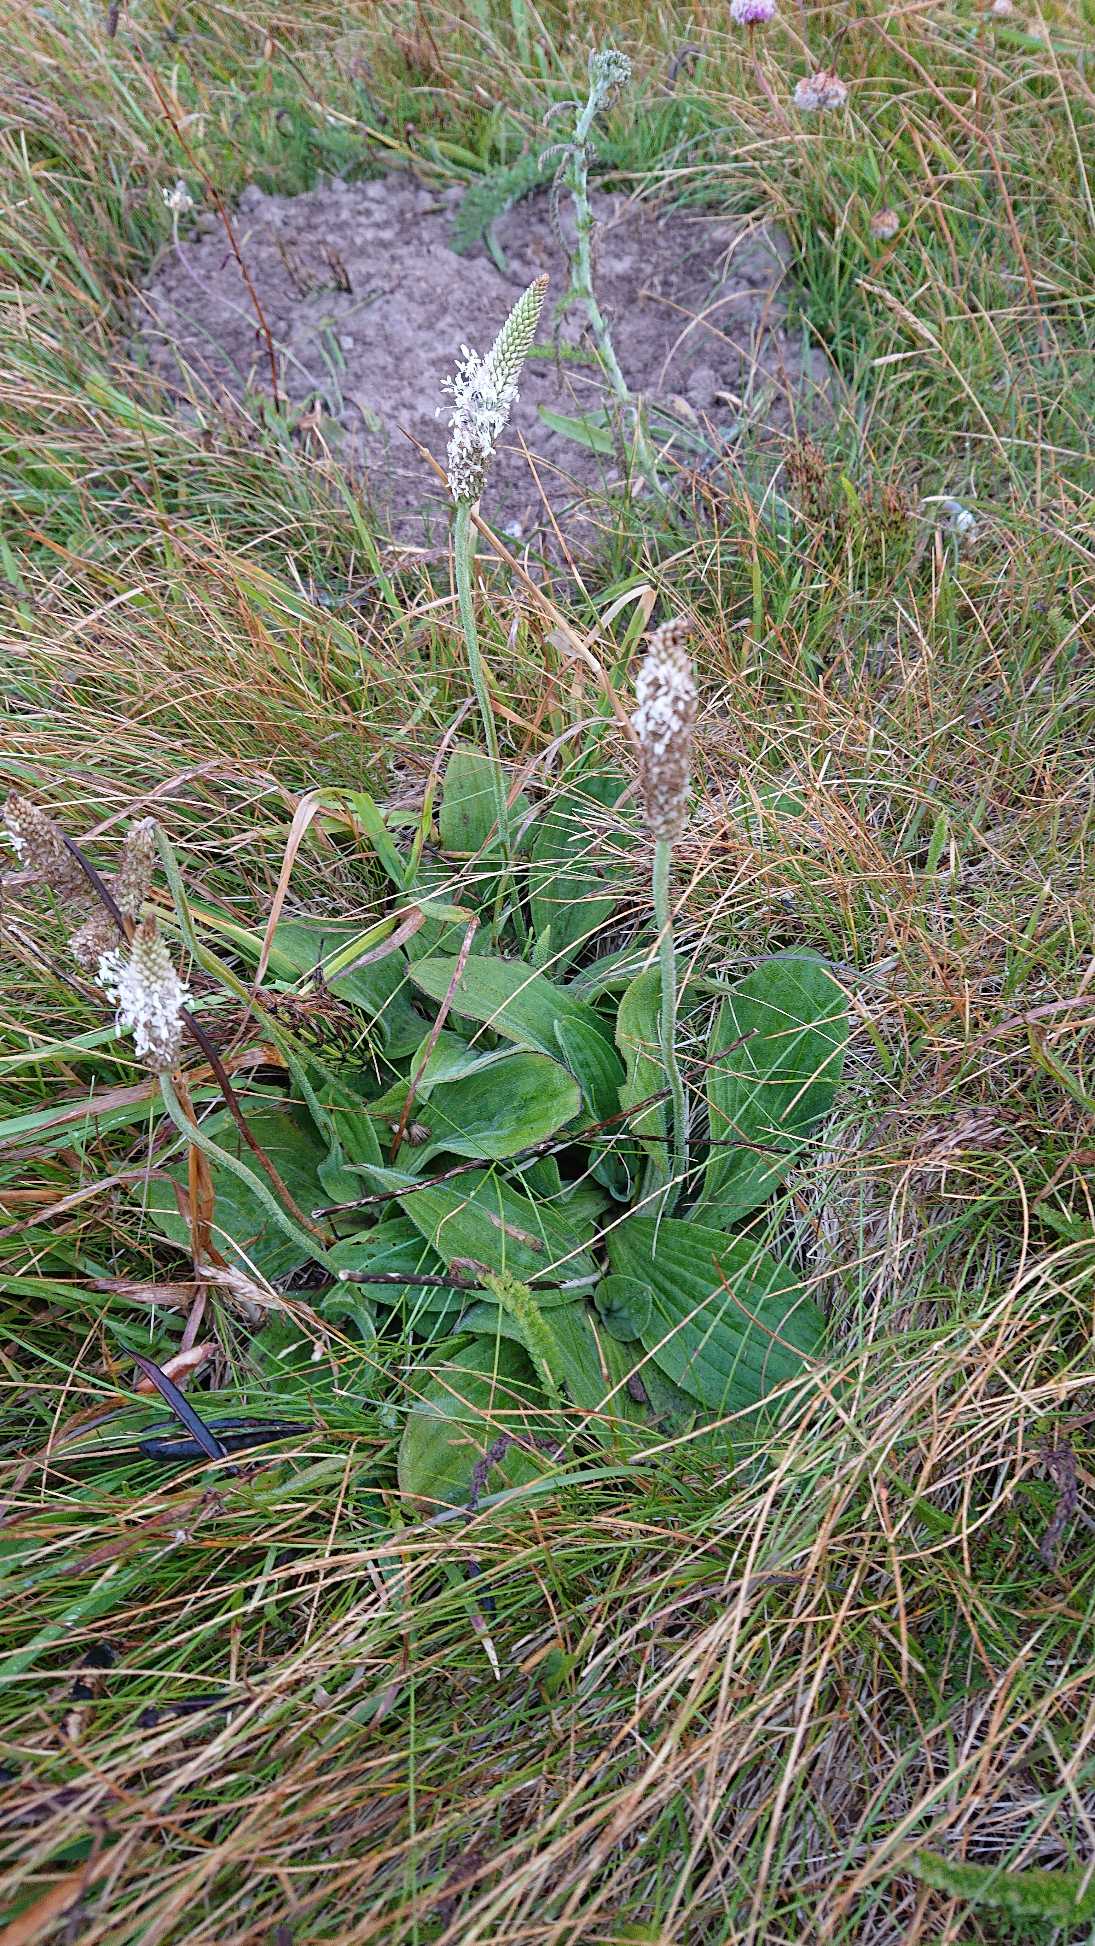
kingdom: Plantae
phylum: Tracheophyta
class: Magnoliopsida
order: Lamiales
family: Plantaginaceae
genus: Plantago
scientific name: Plantago media
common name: Dunet vejbred
